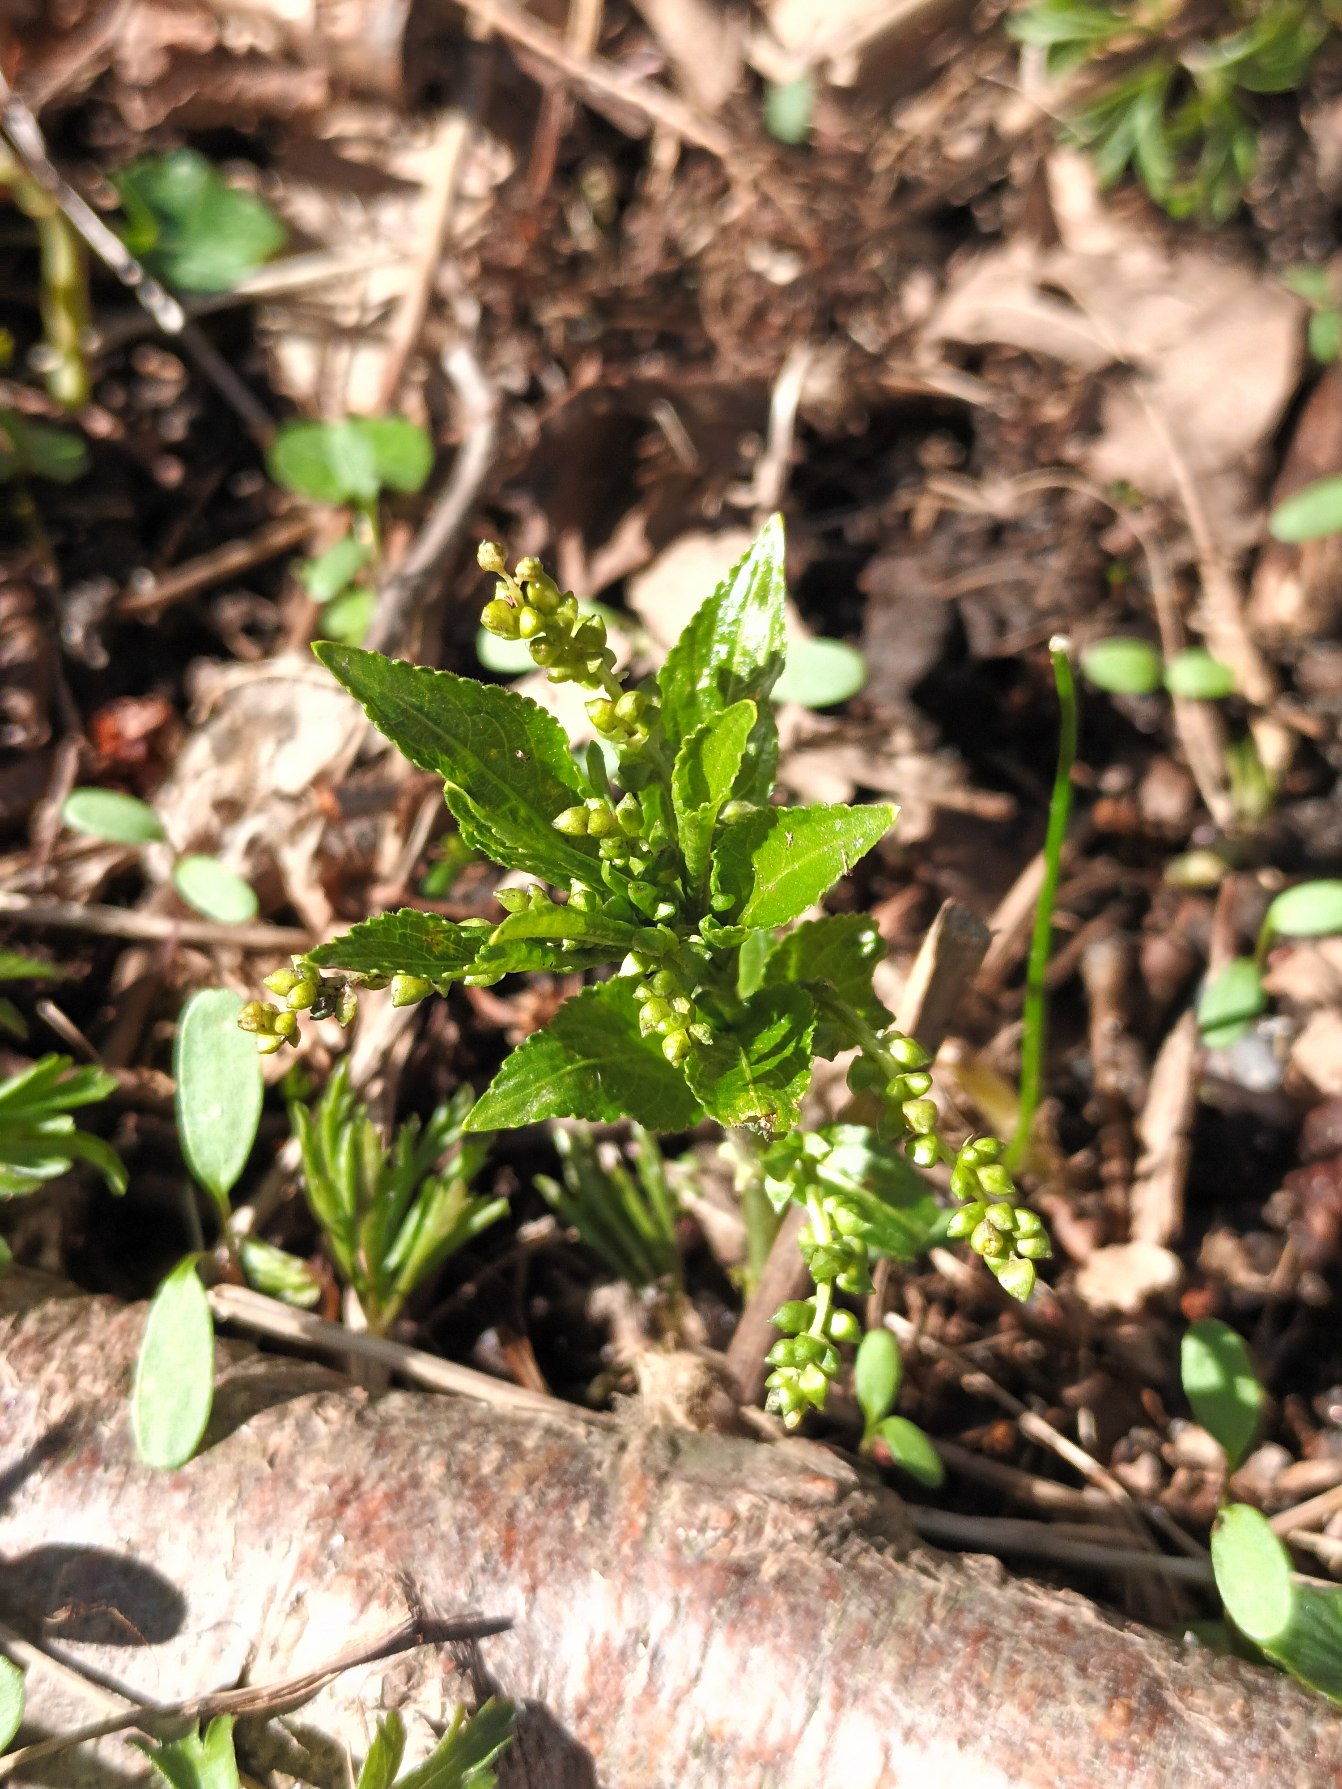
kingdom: Plantae
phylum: Tracheophyta
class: Magnoliopsida
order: Malpighiales
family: Euphorbiaceae
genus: Mercurialis
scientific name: Mercurialis perennis
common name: Almindelig bingelurt
